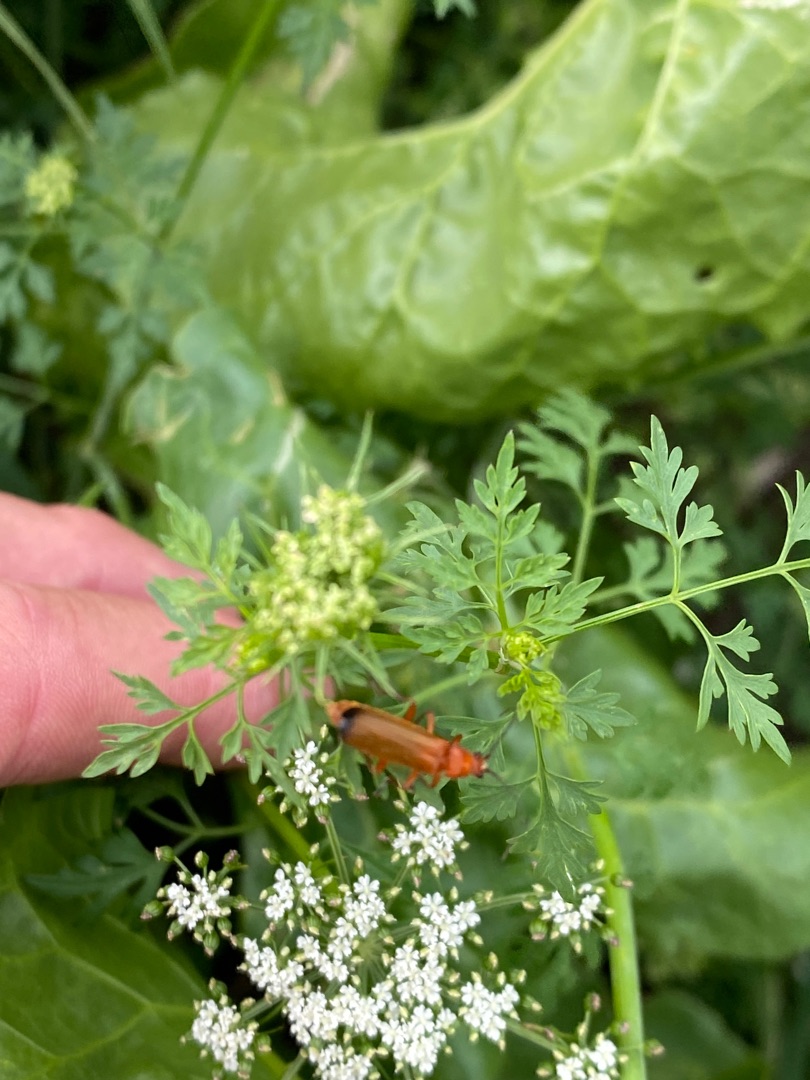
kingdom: Plantae
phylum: Tracheophyta
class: Magnoliopsida
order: Apiales
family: Apiaceae
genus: Aethusa
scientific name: Aethusa cynapium
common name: Hundepersille
